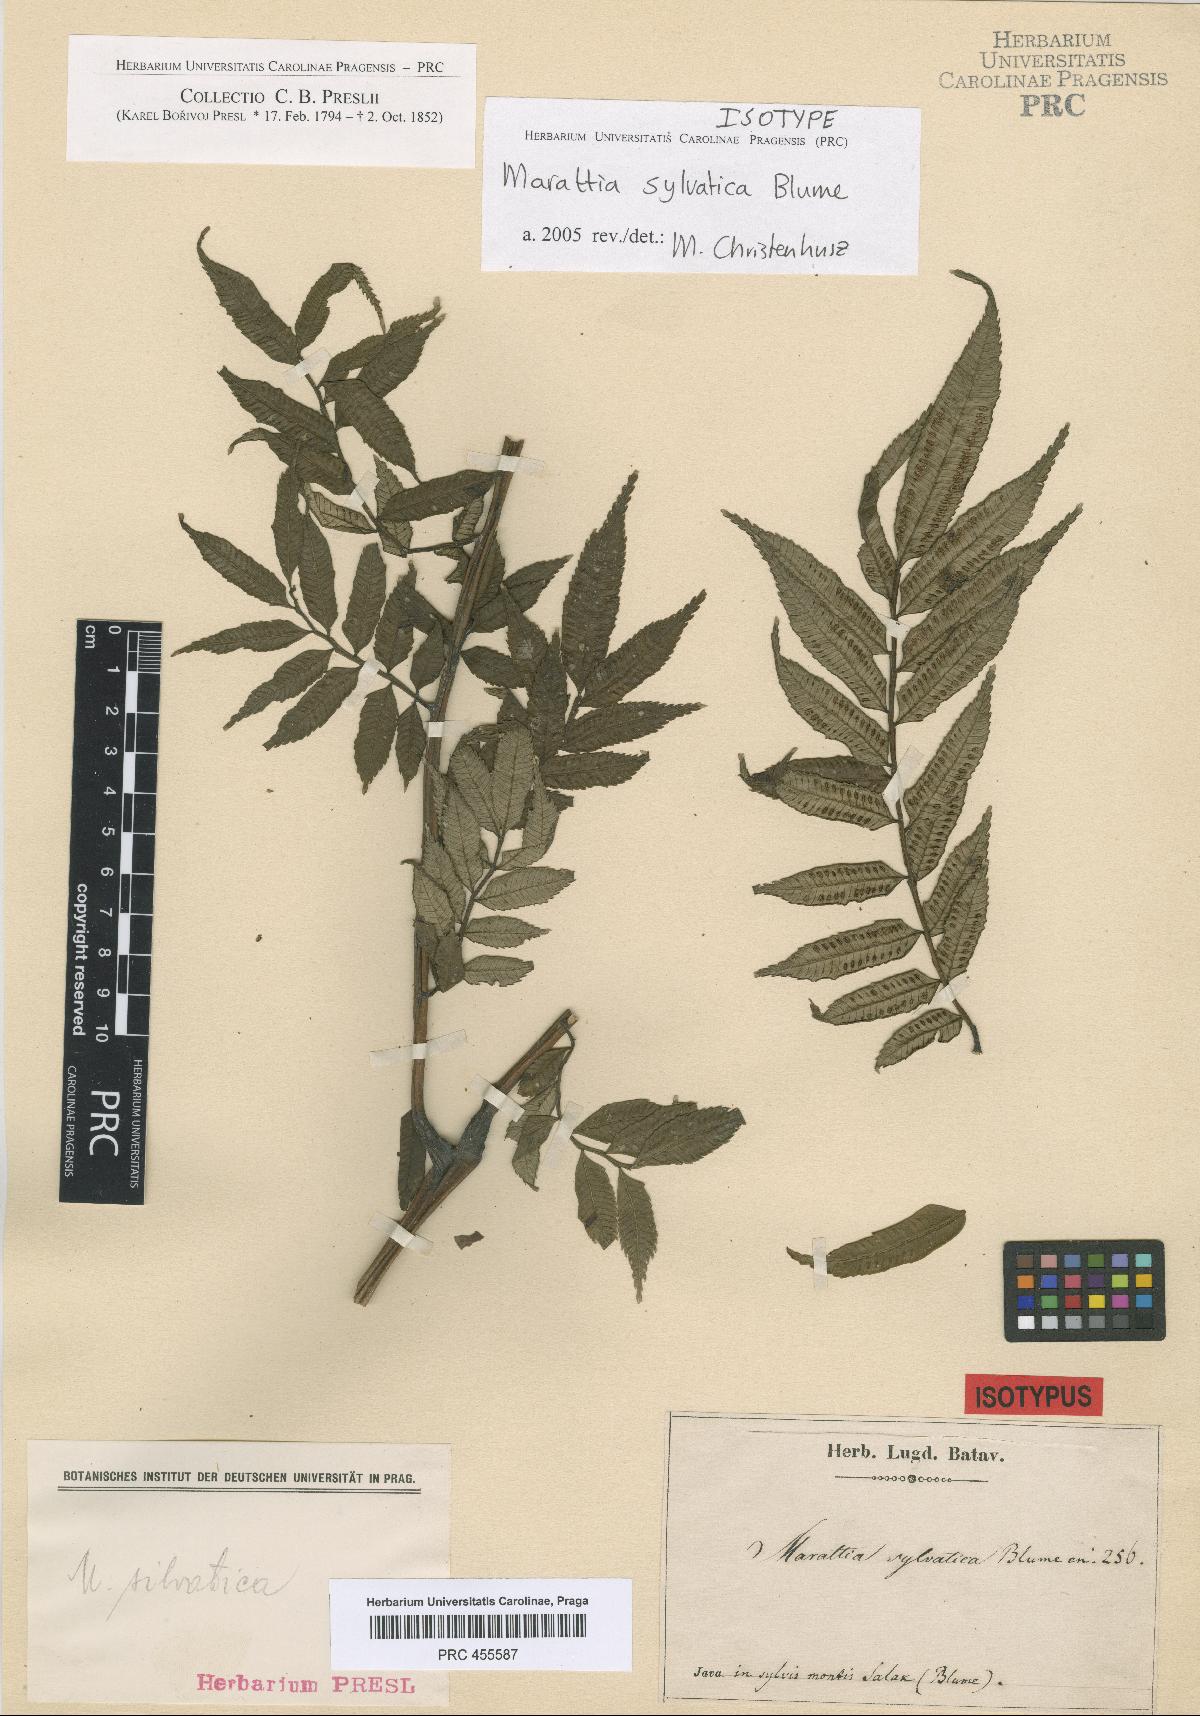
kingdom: Plantae
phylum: Tracheophyta
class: Polypodiopsida
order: Marattiales
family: Marattiaceae
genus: Ptisana
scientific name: Ptisana sylvatica
